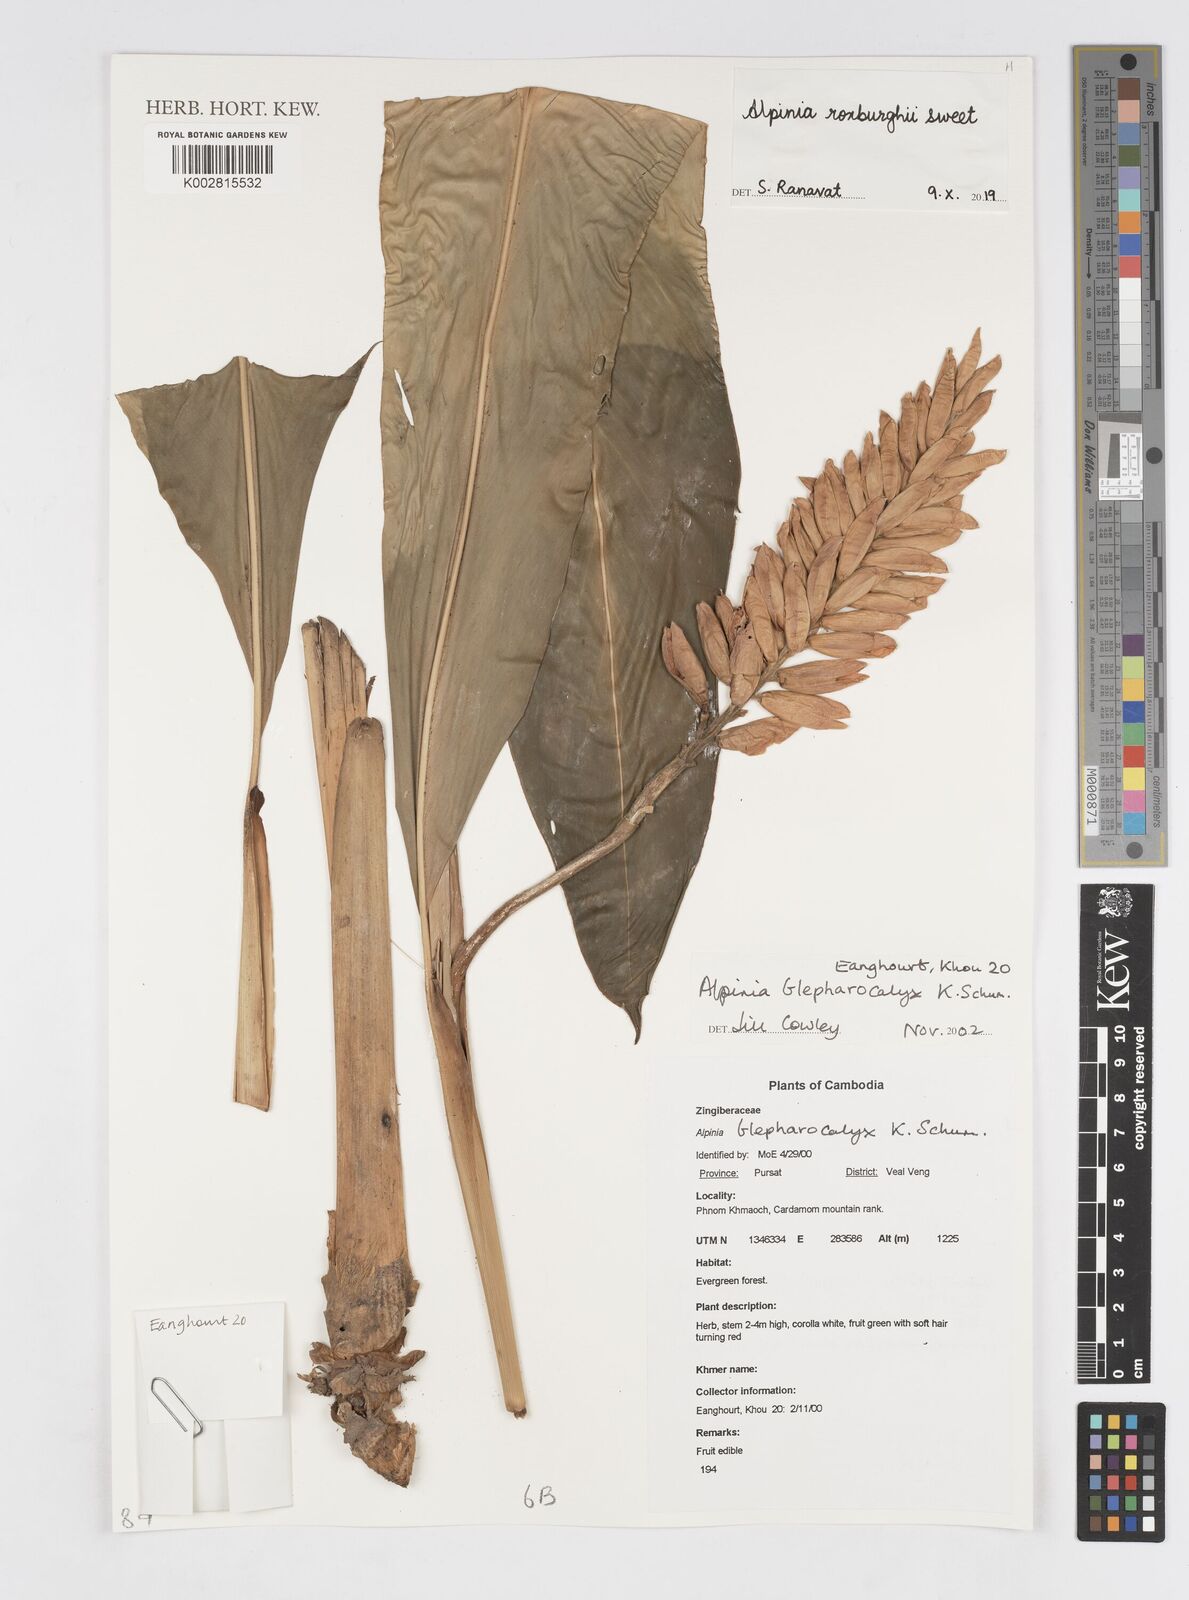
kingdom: Plantae
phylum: Tracheophyta
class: Liliopsida
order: Zingiberales
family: Zingiberaceae
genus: Alpinia
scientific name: Alpinia roxburghii
